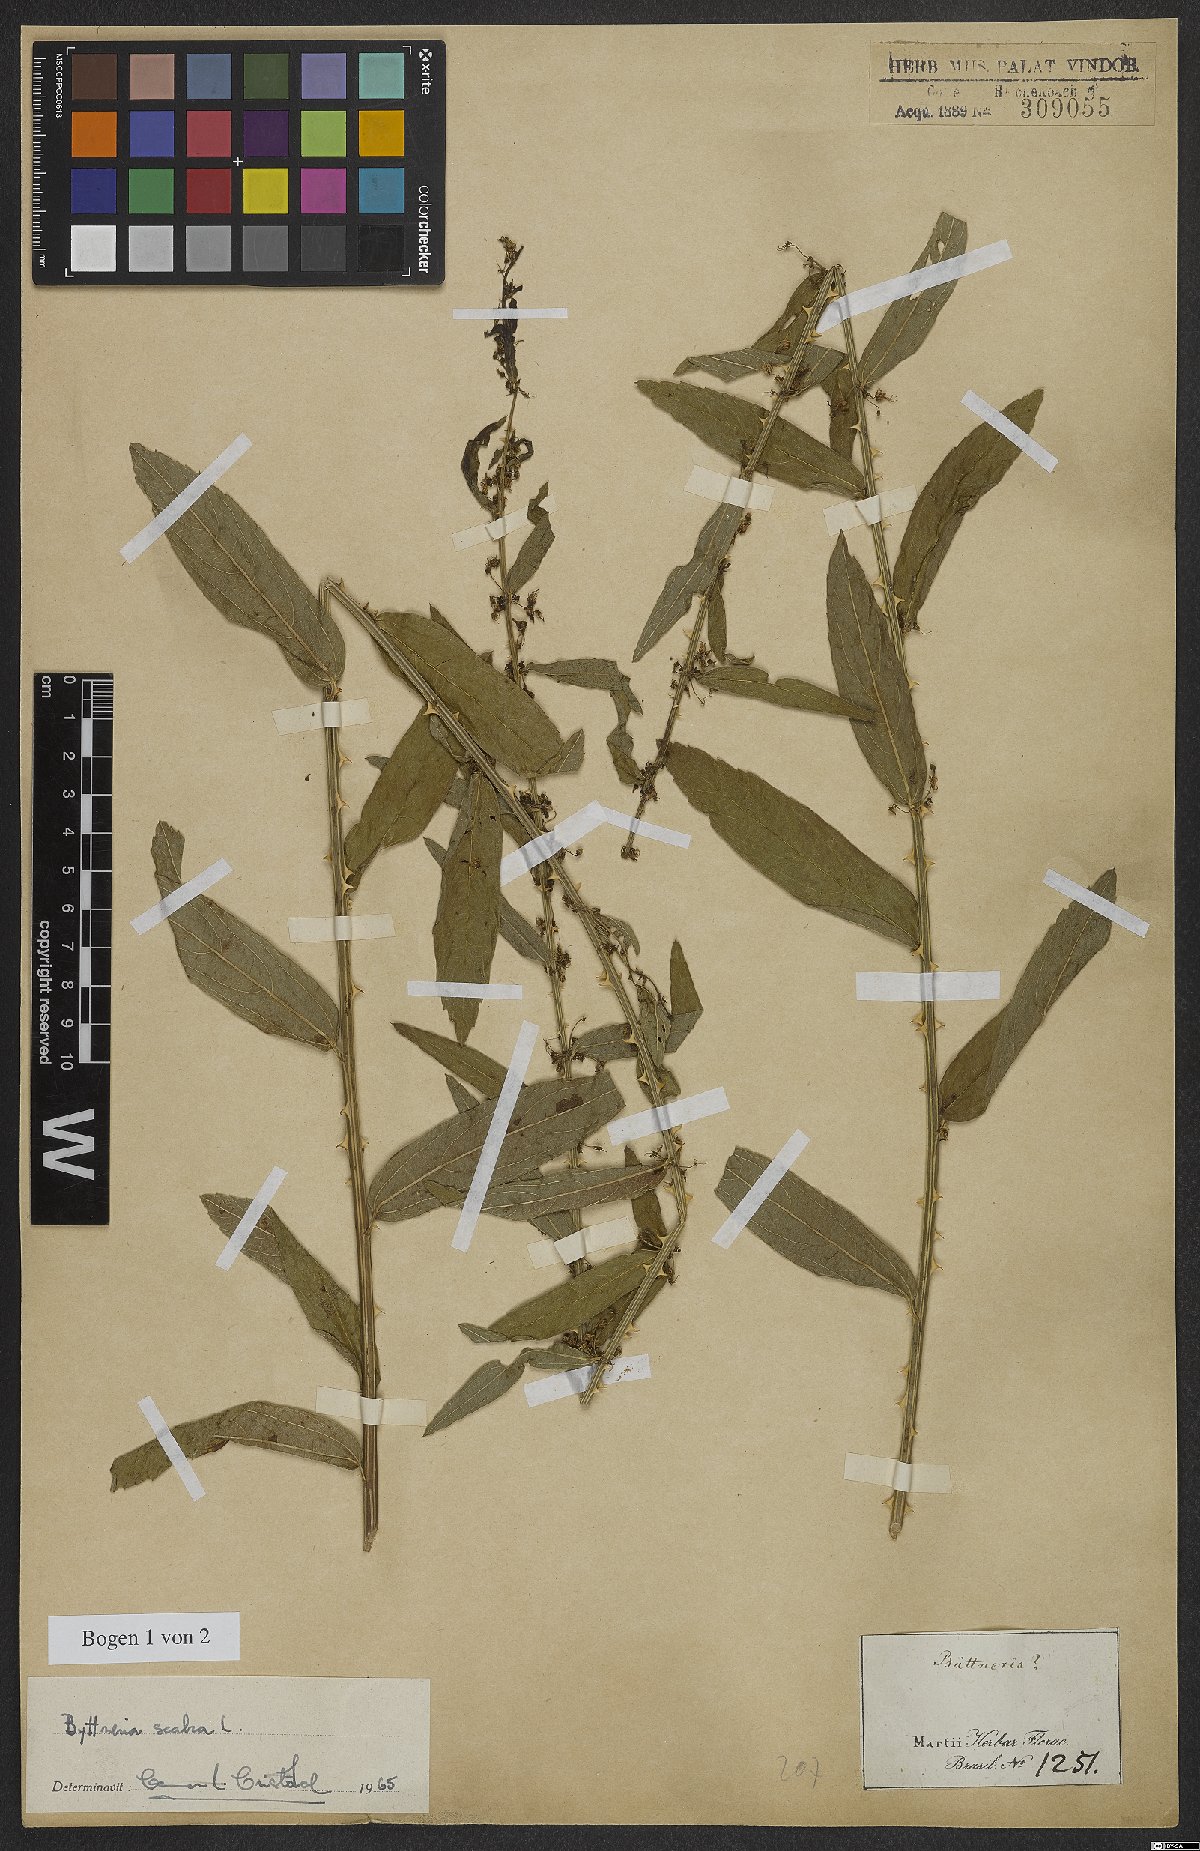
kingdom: Plantae
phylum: Tracheophyta
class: Magnoliopsida
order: Malvales
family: Malvaceae
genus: Byttneria
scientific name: Byttneria
